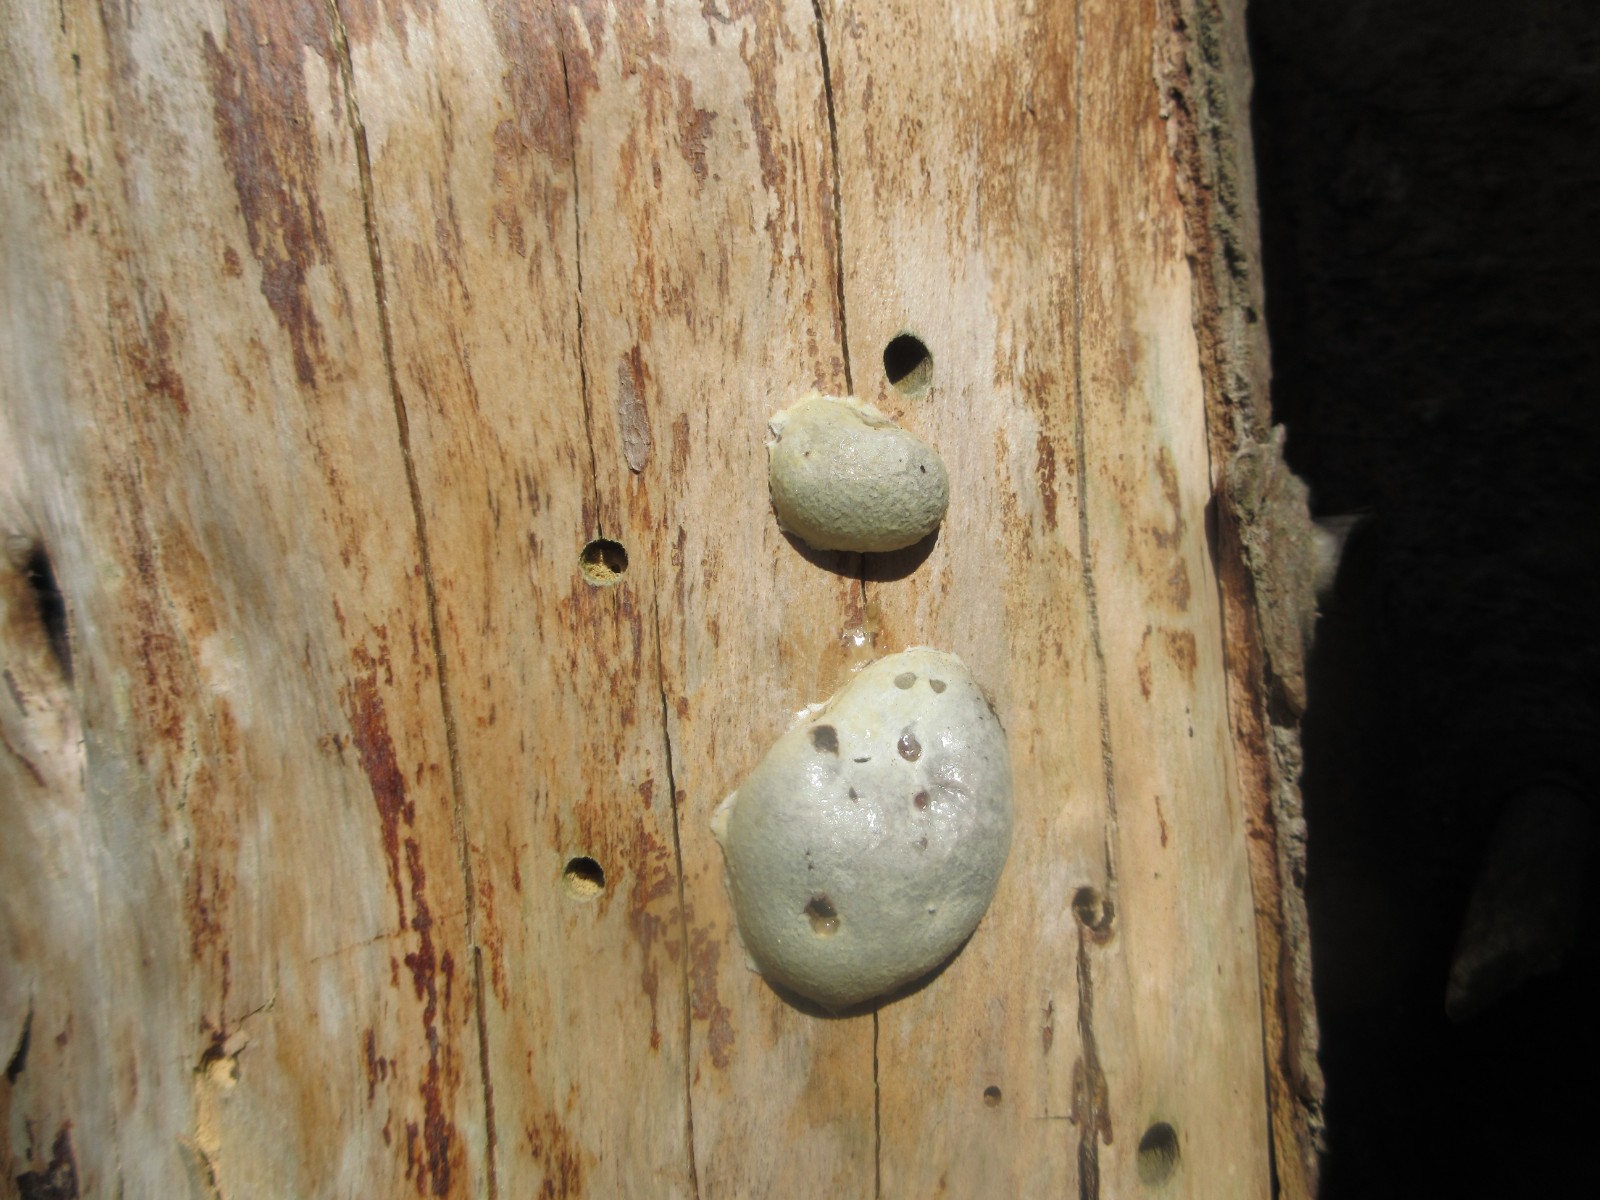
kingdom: Protozoa
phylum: Mycetozoa
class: Myxomycetes
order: Cribrariales
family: Tubiferaceae
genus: Reticularia
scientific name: Reticularia lycoperdon
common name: skinnende støvpude
